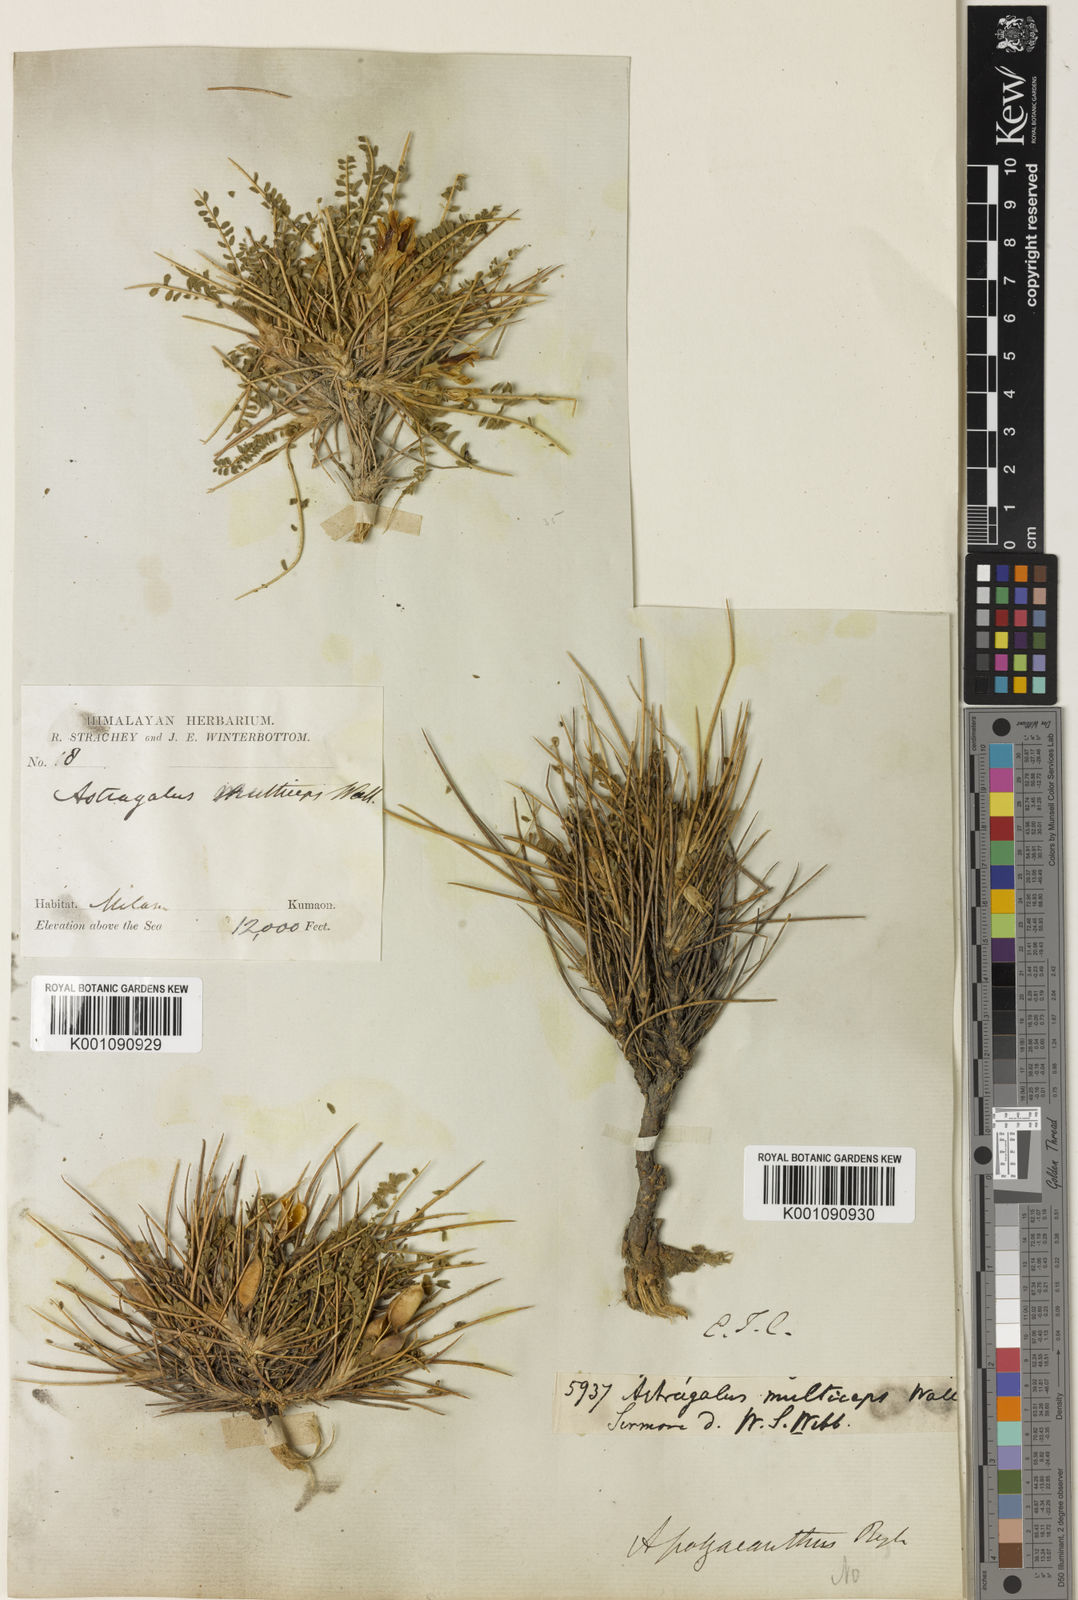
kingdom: Plantae
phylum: Tracheophyta
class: Magnoliopsida
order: Fabales
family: Fabaceae
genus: Astragalus
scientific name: Astragalus rhizanthus
